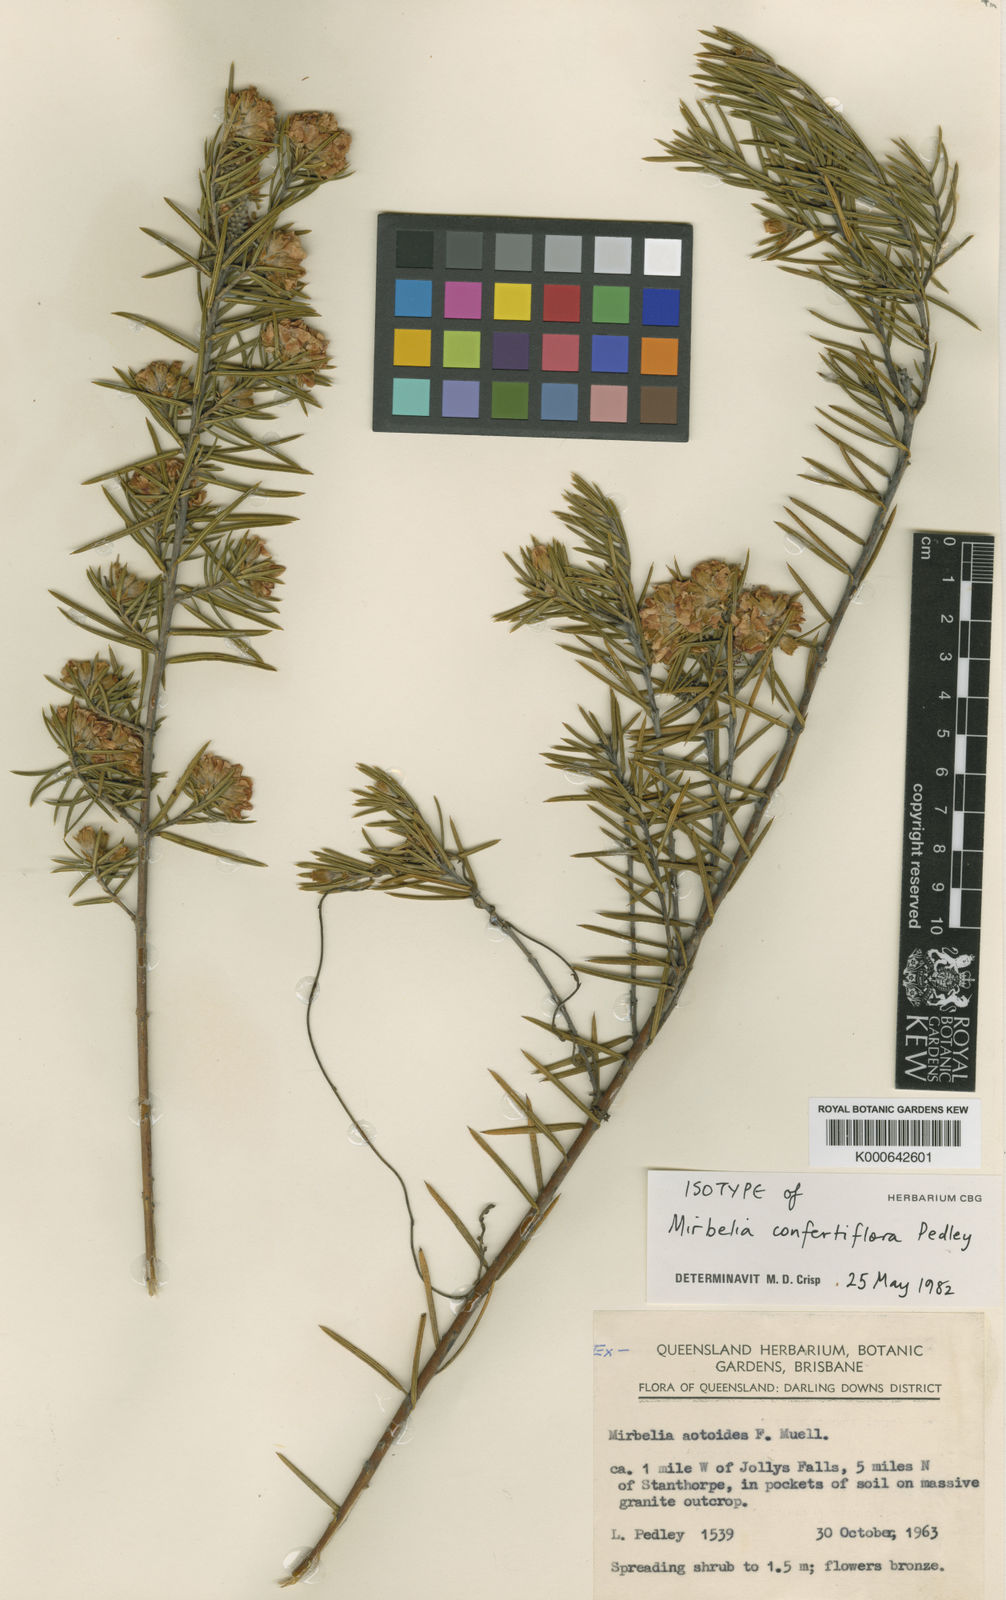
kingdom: Plantae
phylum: Tracheophyta
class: Magnoliopsida
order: Fabales
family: Fabaceae
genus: Mirbelia
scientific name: Mirbelia confertiflora
